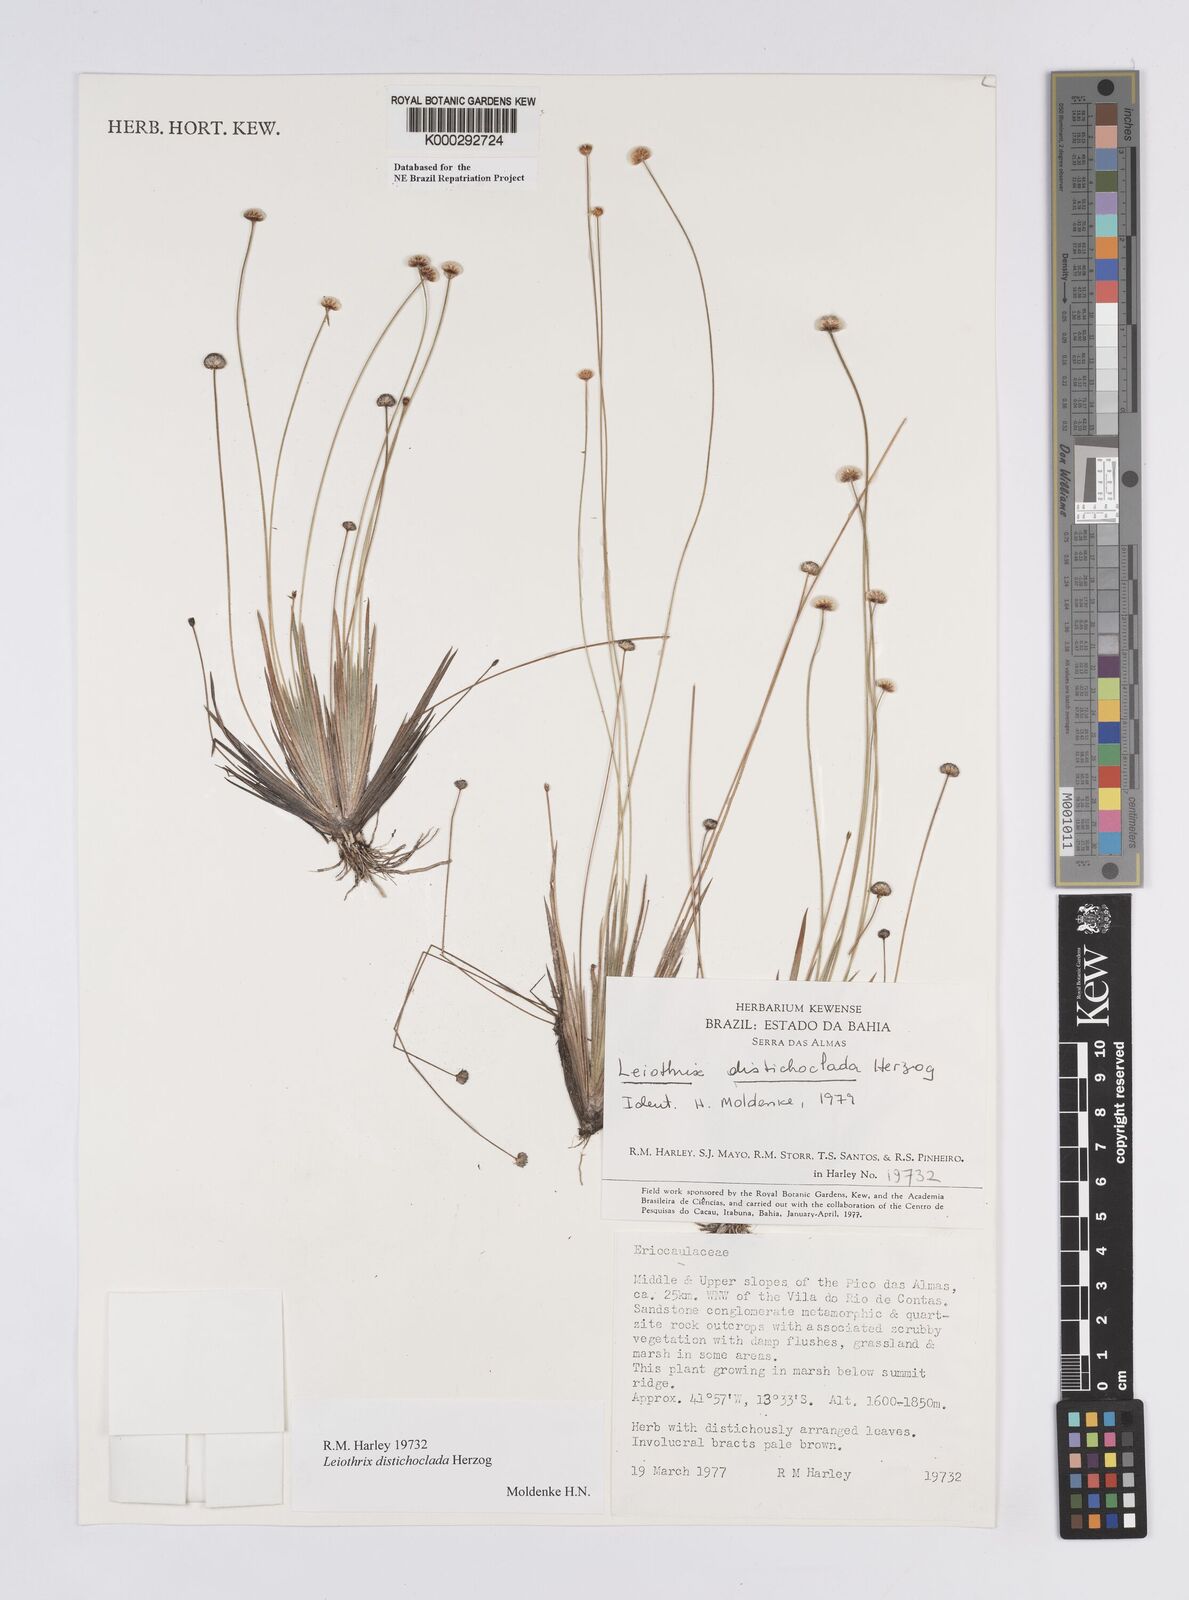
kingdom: Plantae
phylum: Tracheophyta
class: Liliopsida
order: Poales
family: Eriocaulaceae
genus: Leiothrix
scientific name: Leiothrix distichoclada
